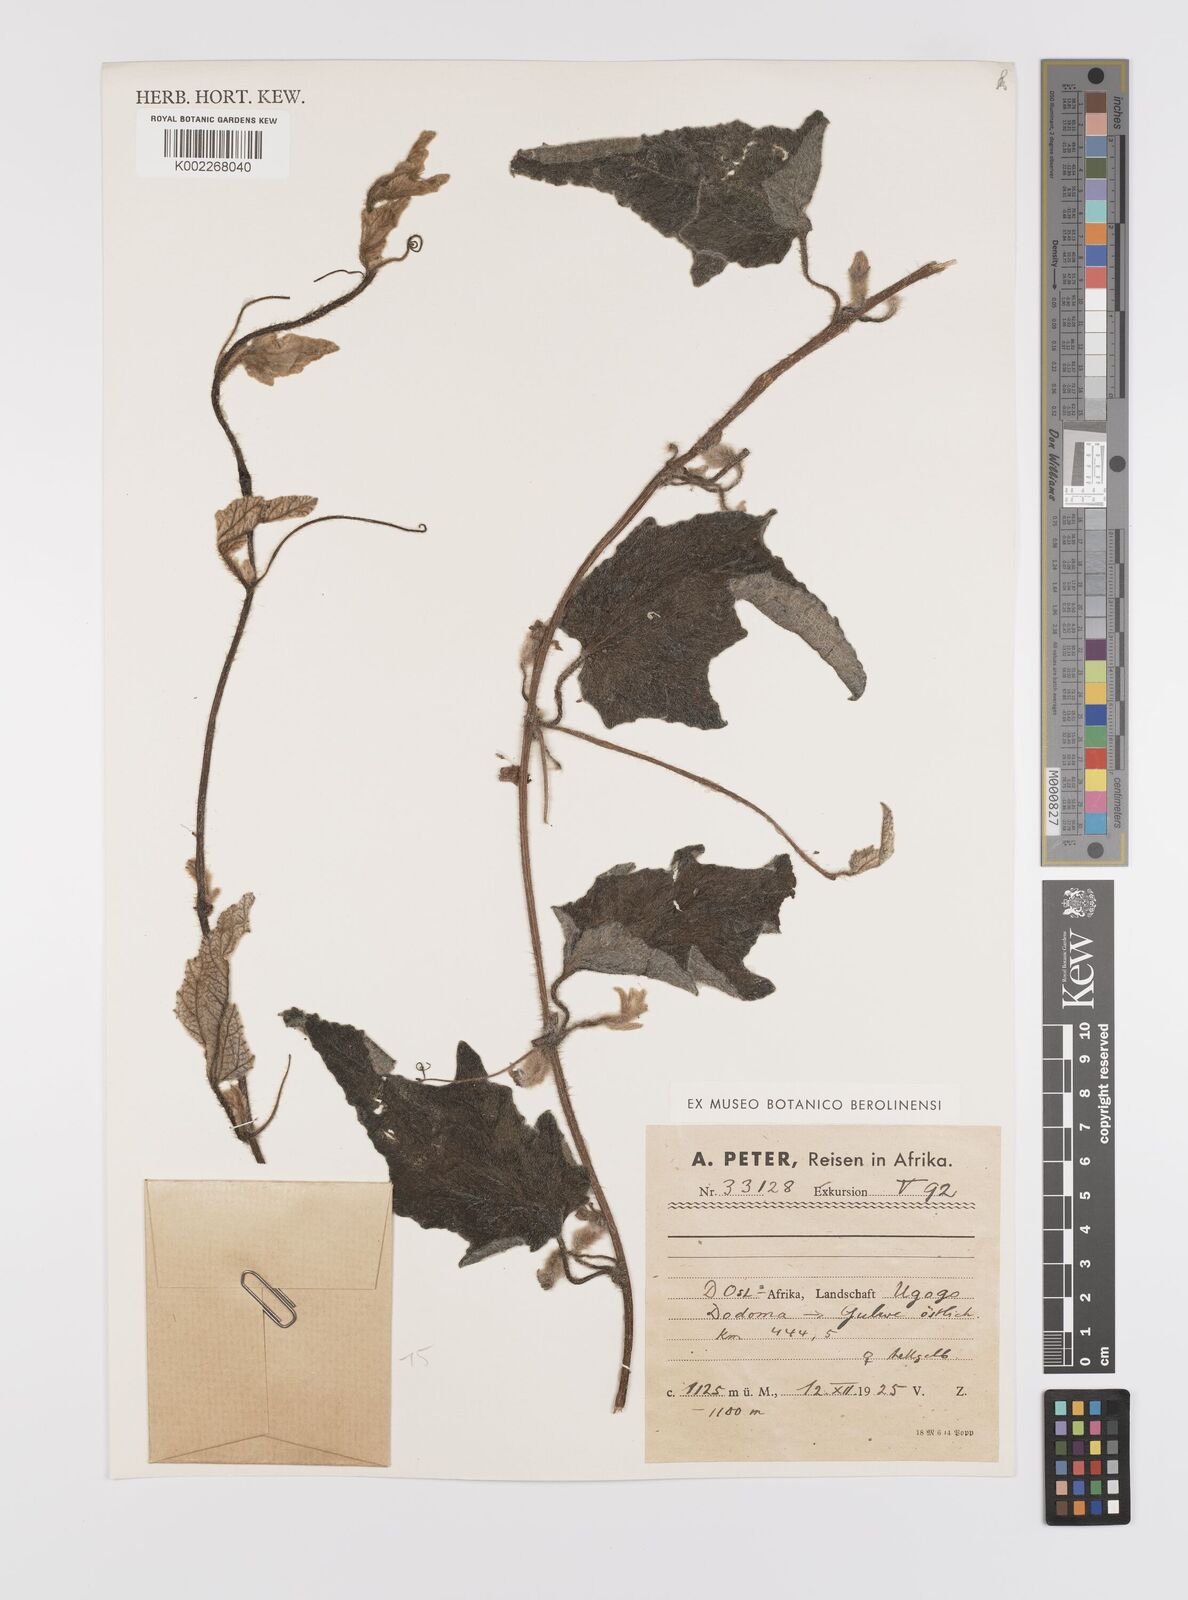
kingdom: Plantae
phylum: Tracheophyta
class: Magnoliopsida
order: Cucurbitales
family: Cucurbitaceae
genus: Cucumis
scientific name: Cucumis hirsutus
